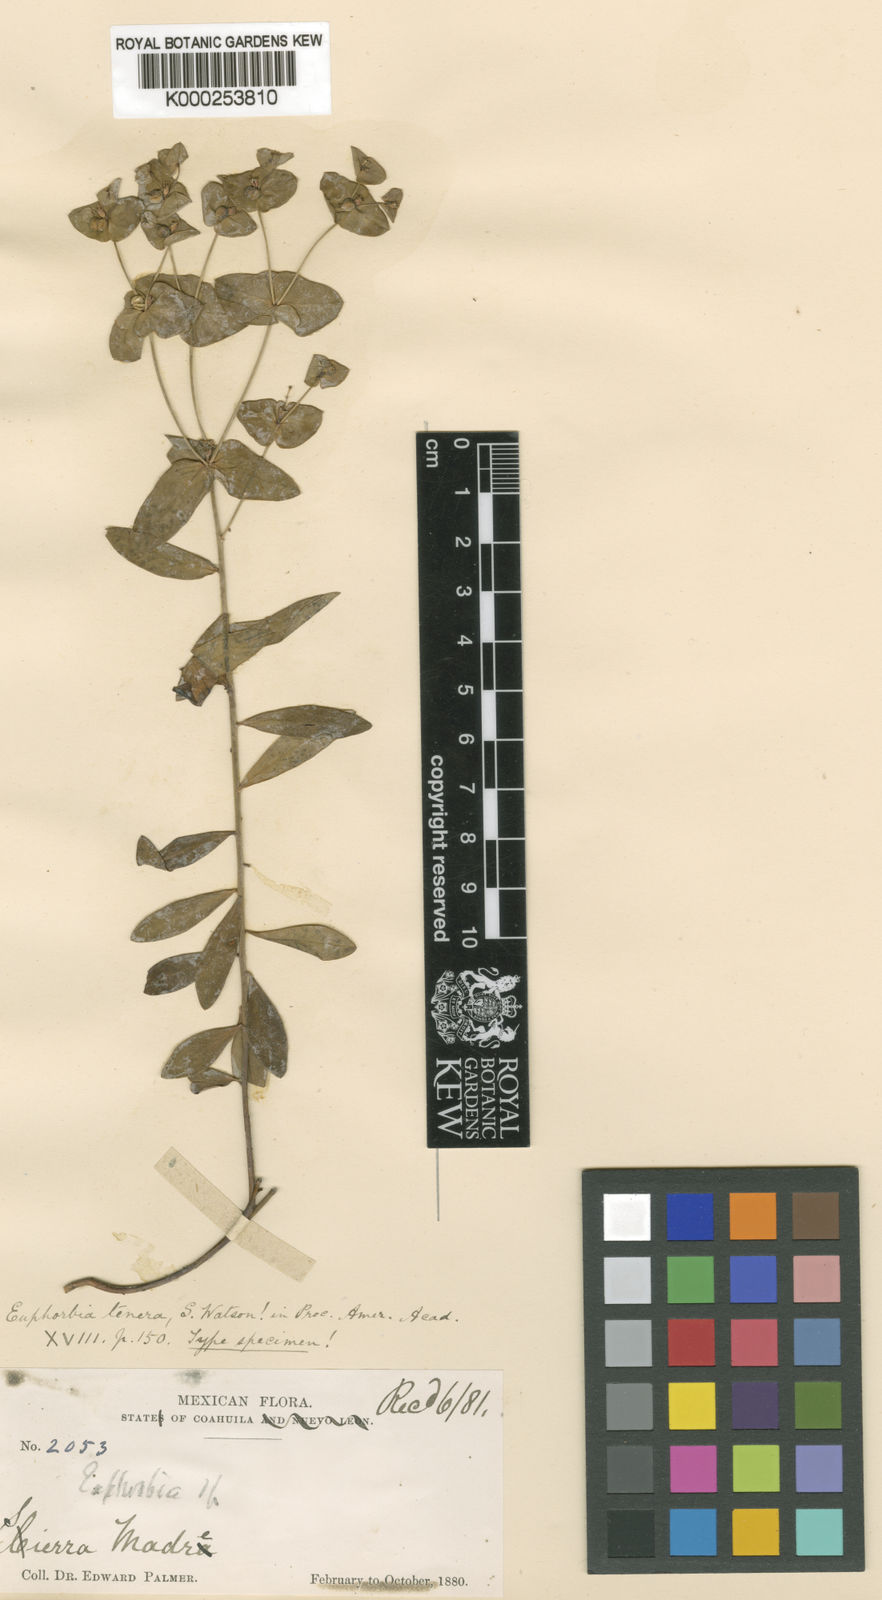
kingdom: Plantae
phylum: Tracheophyta
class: Magnoliopsida
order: Malpighiales
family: Euphorbiaceae
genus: Euphorbia
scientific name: Euphorbia macropus
